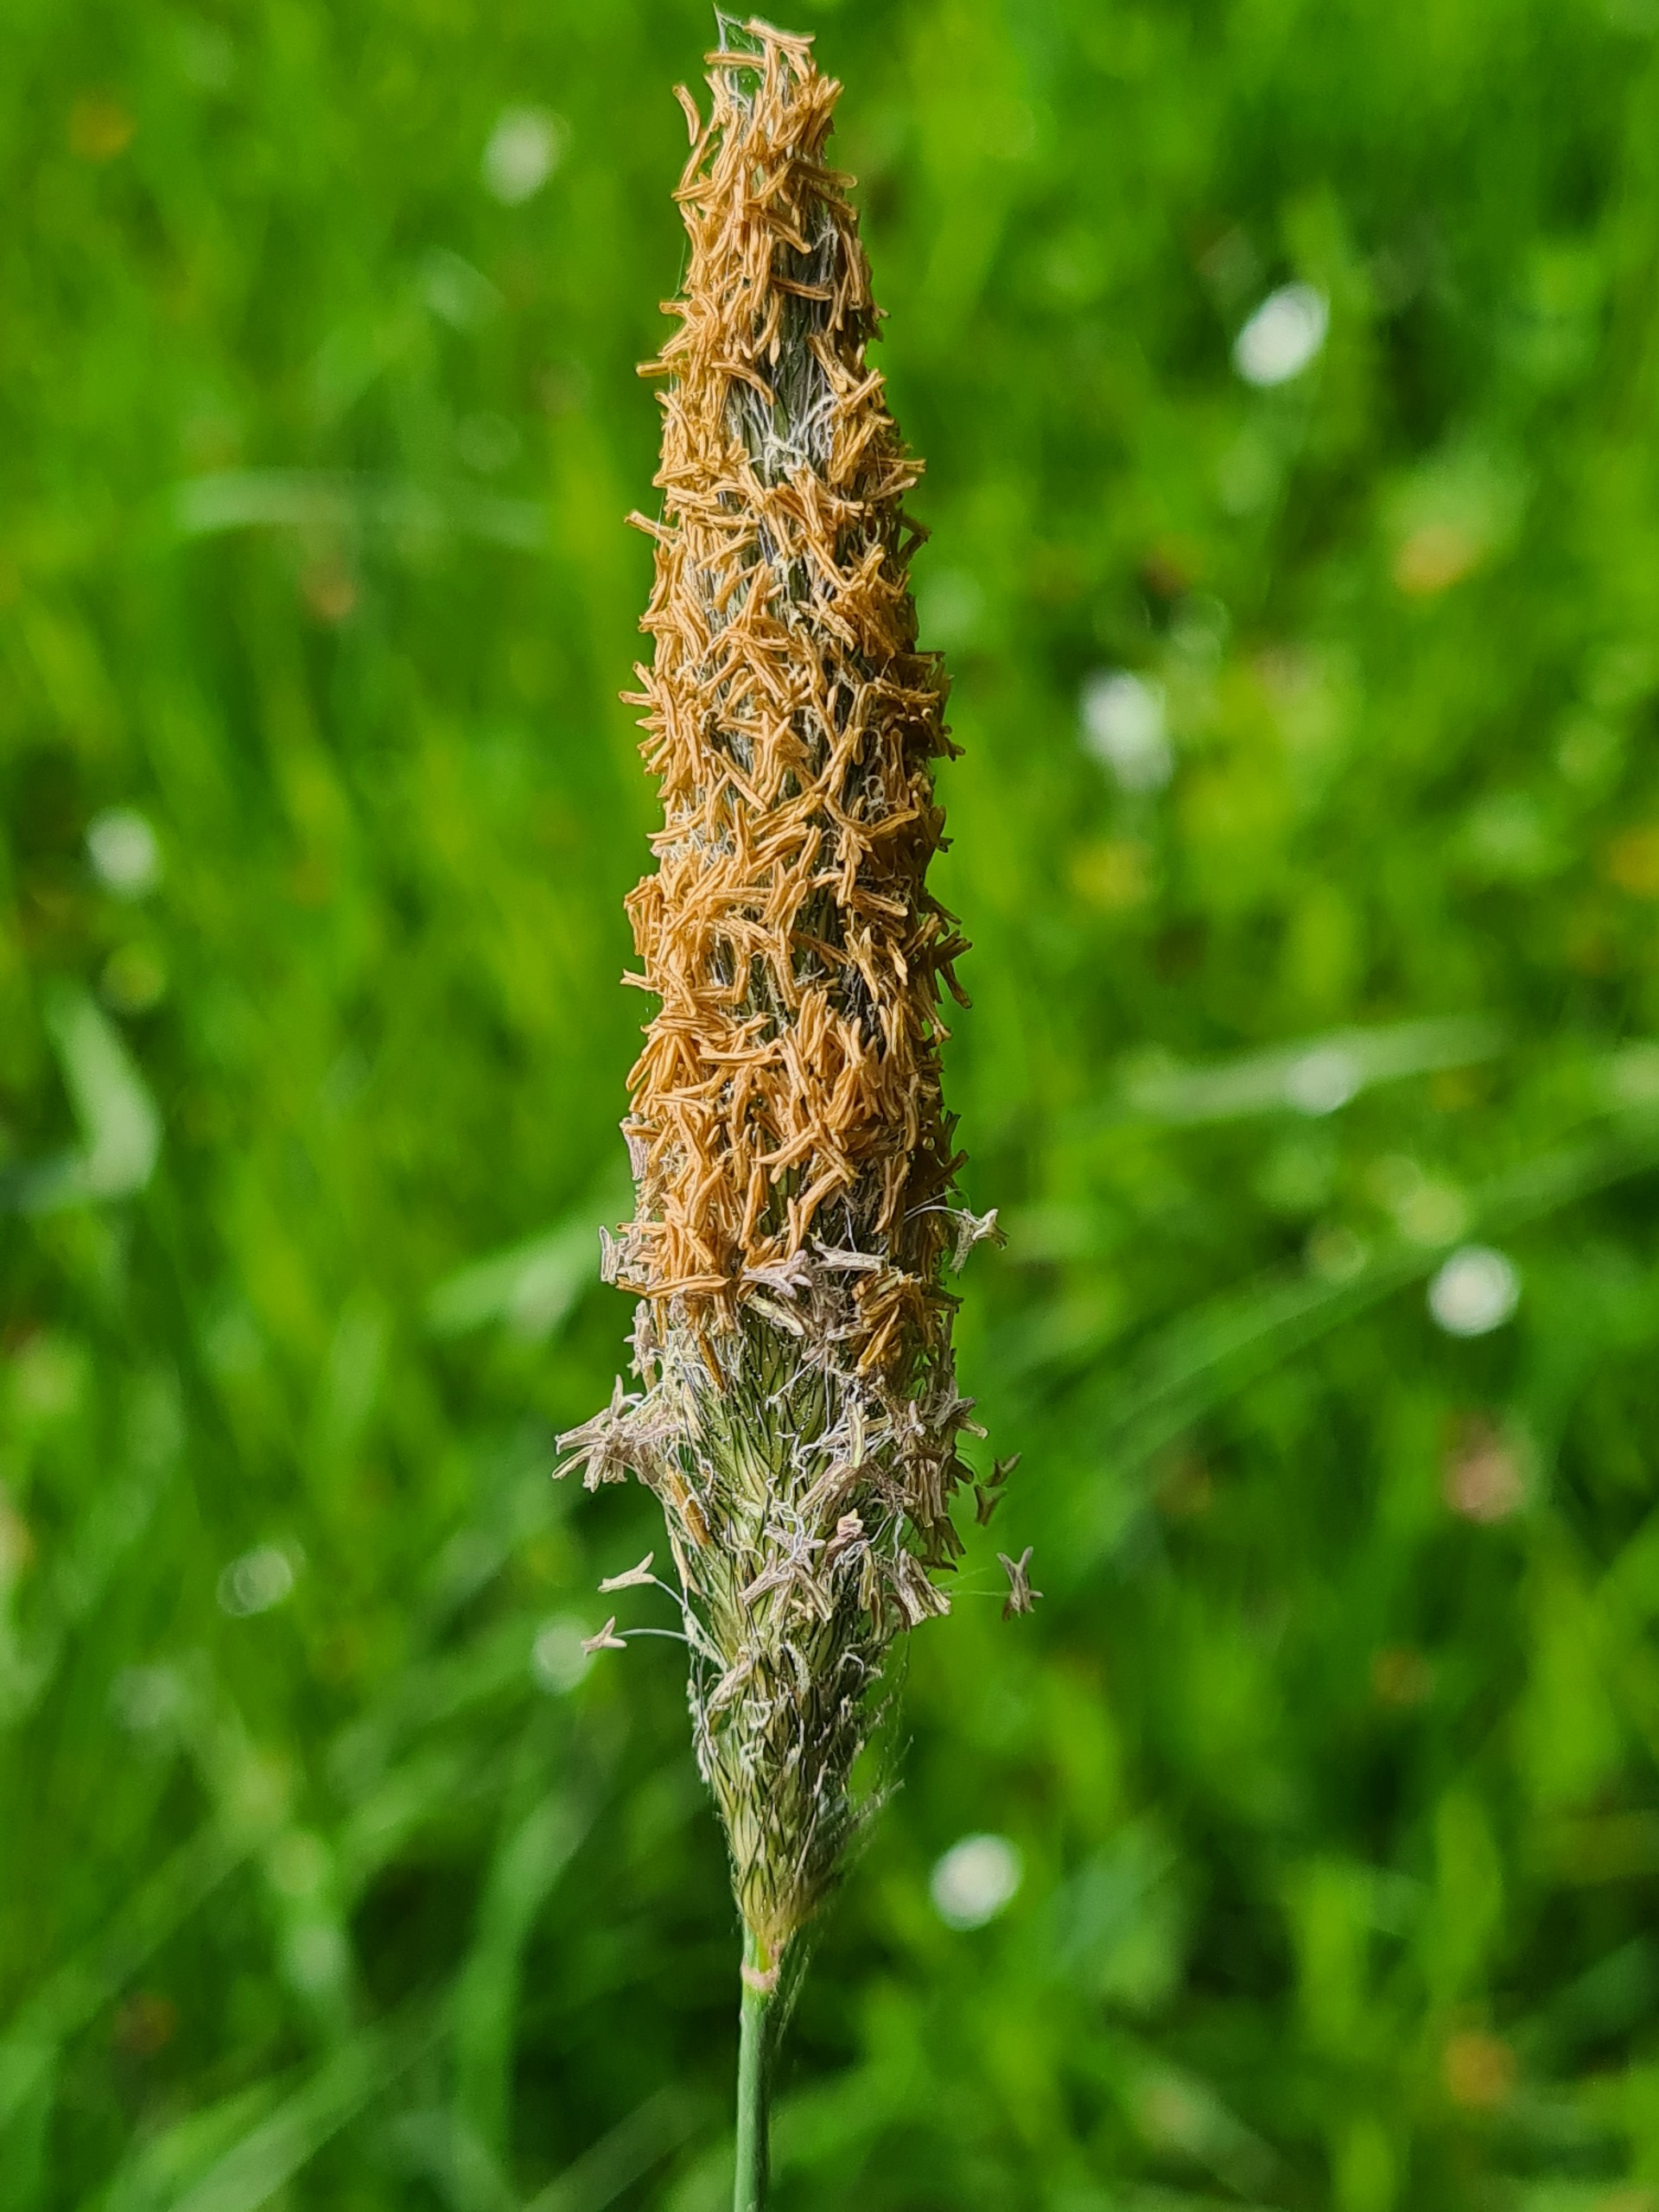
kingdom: Plantae
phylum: Tracheophyta
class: Liliopsida
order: Poales
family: Poaceae
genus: Alopecurus
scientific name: Alopecurus pratensis
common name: Eng-rævehale
